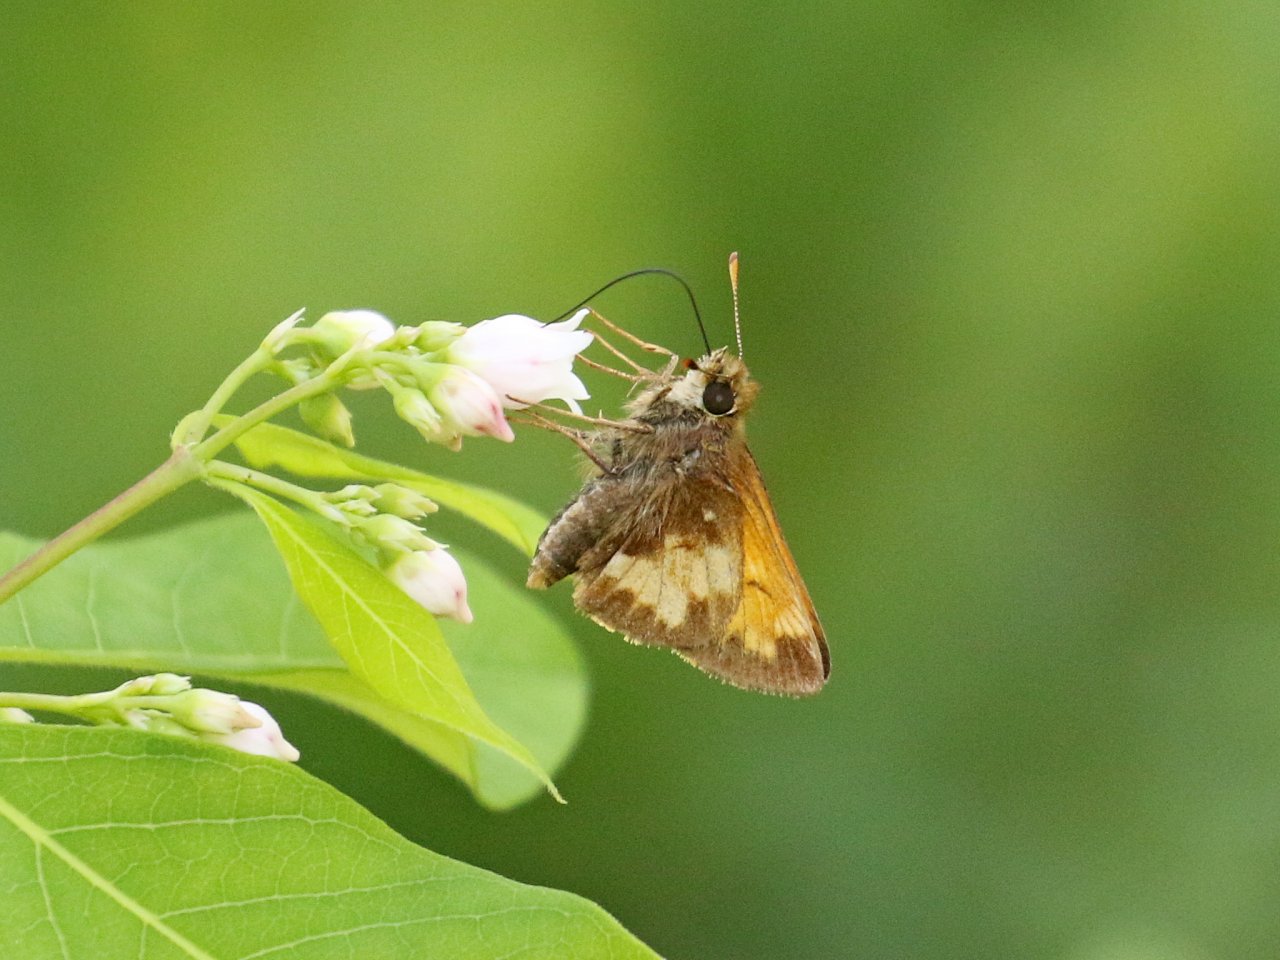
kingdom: Animalia
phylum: Arthropoda
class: Insecta
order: Lepidoptera
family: Hesperiidae
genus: Lon
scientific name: Lon hobomok
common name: Hobomok Skipper
